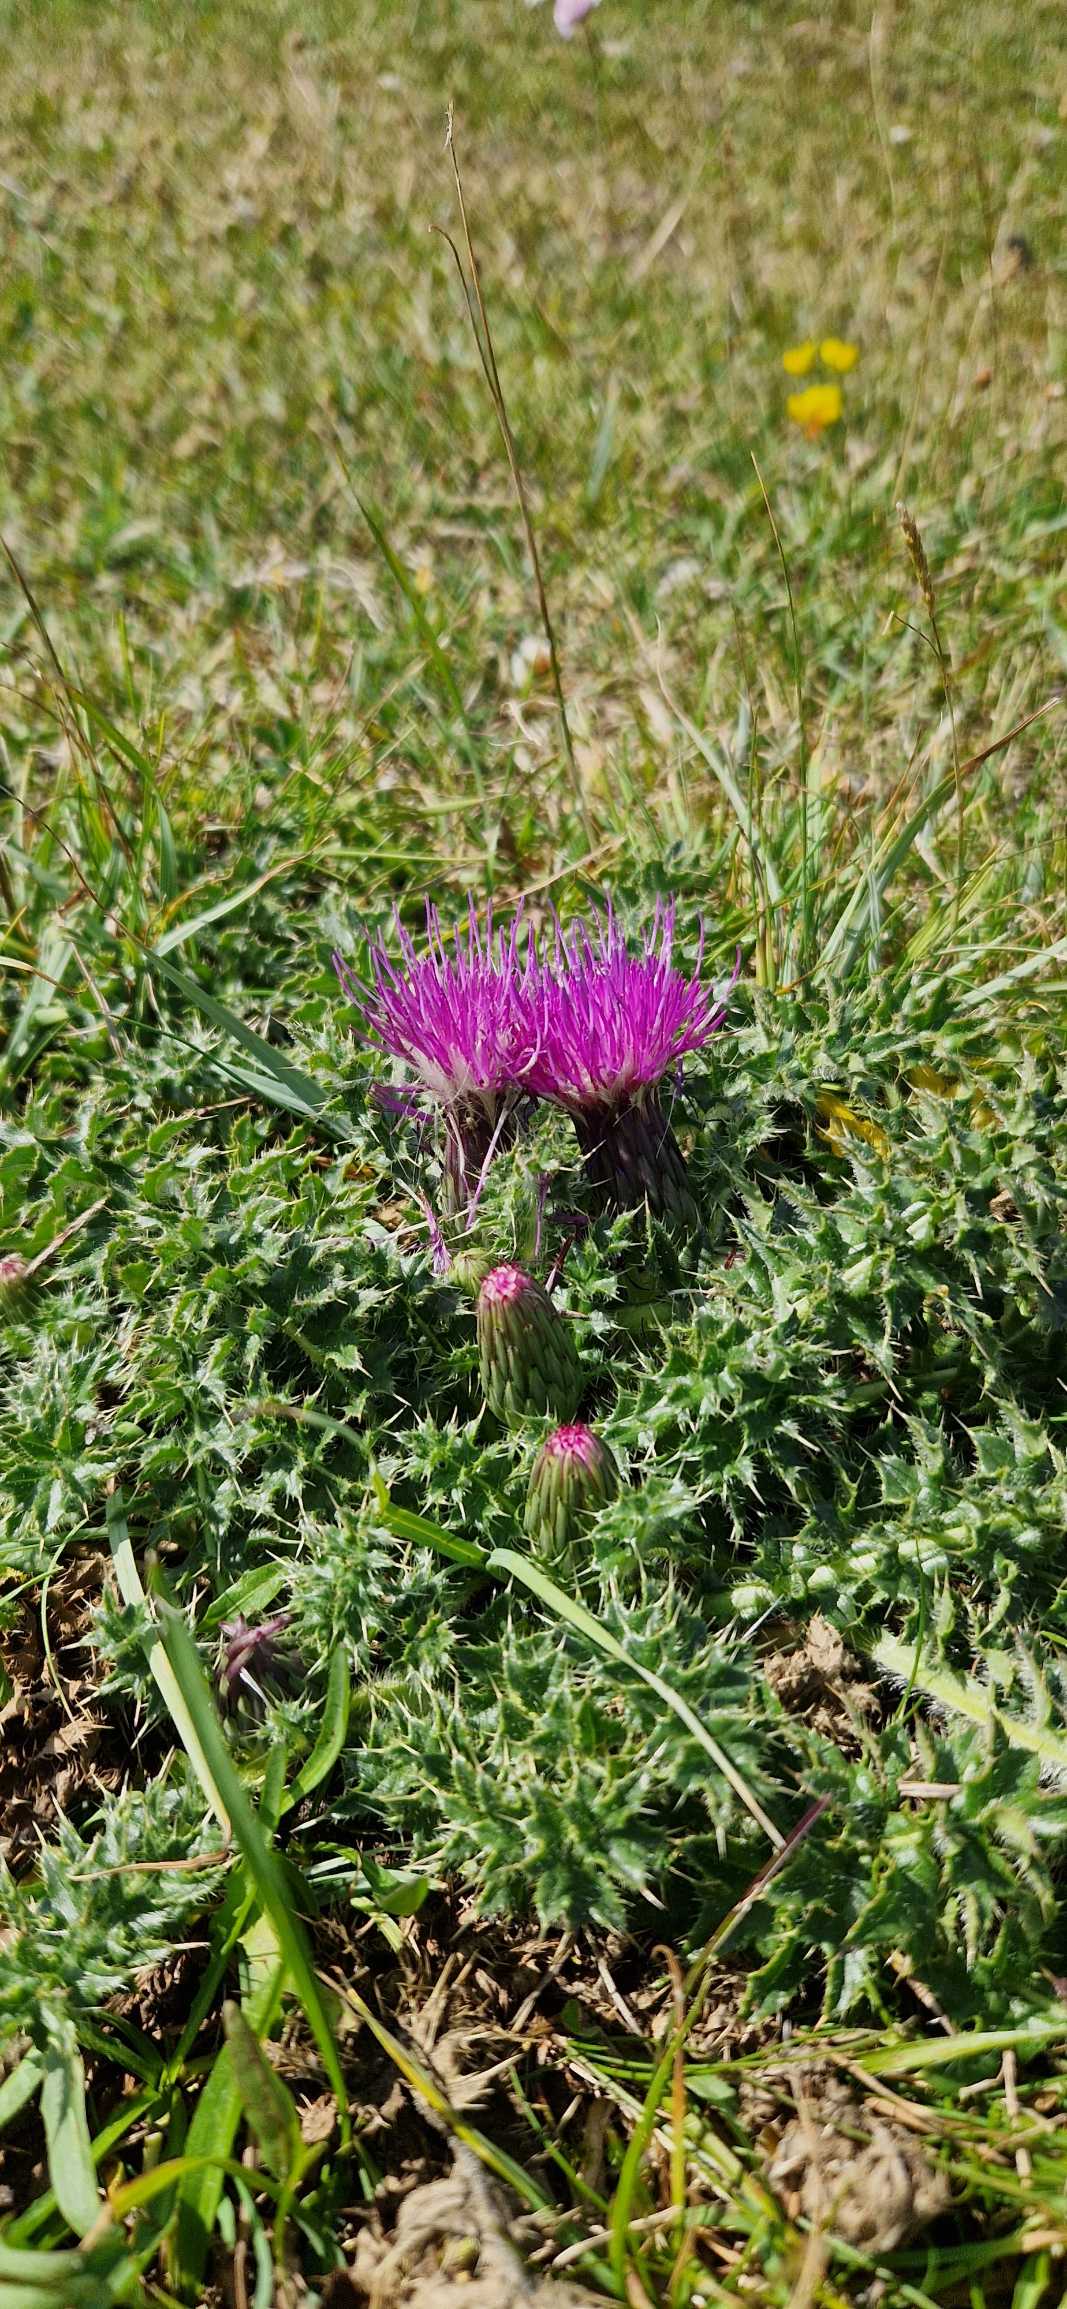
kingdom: Plantae
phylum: Tracheophyta
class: Magnoliopsida
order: Asterales
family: Asteraceae
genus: Cirsium
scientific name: Cirsium acaule
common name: Lav tidsel
